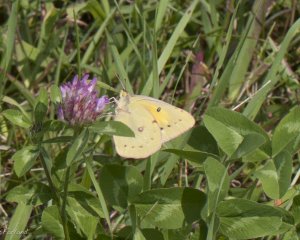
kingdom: Animalia
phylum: Arthropoda
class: Insecta
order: Lepidoptera
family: Pieridae
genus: Colias
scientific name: Colias eurytheme
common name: Orange Sulphur
